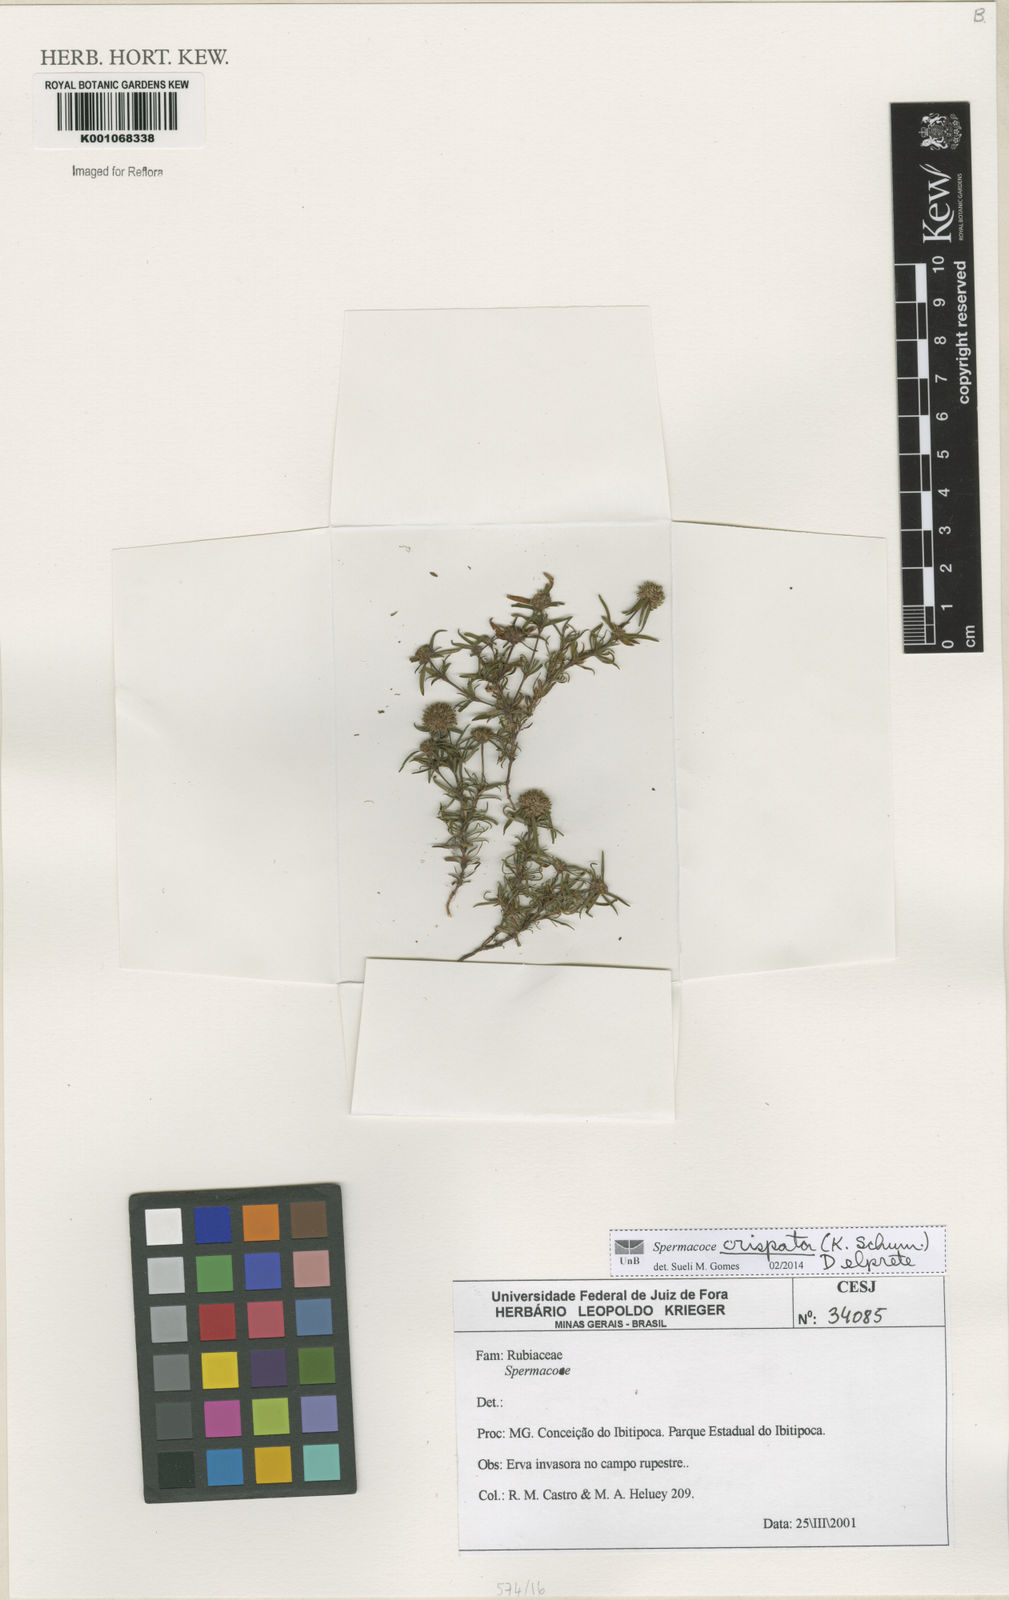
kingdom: Plantae
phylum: Tracheophyta
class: Magnoliopsida
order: Gentianales
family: Rubiaceae
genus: Spermacoce
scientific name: Spermacoce crispata
